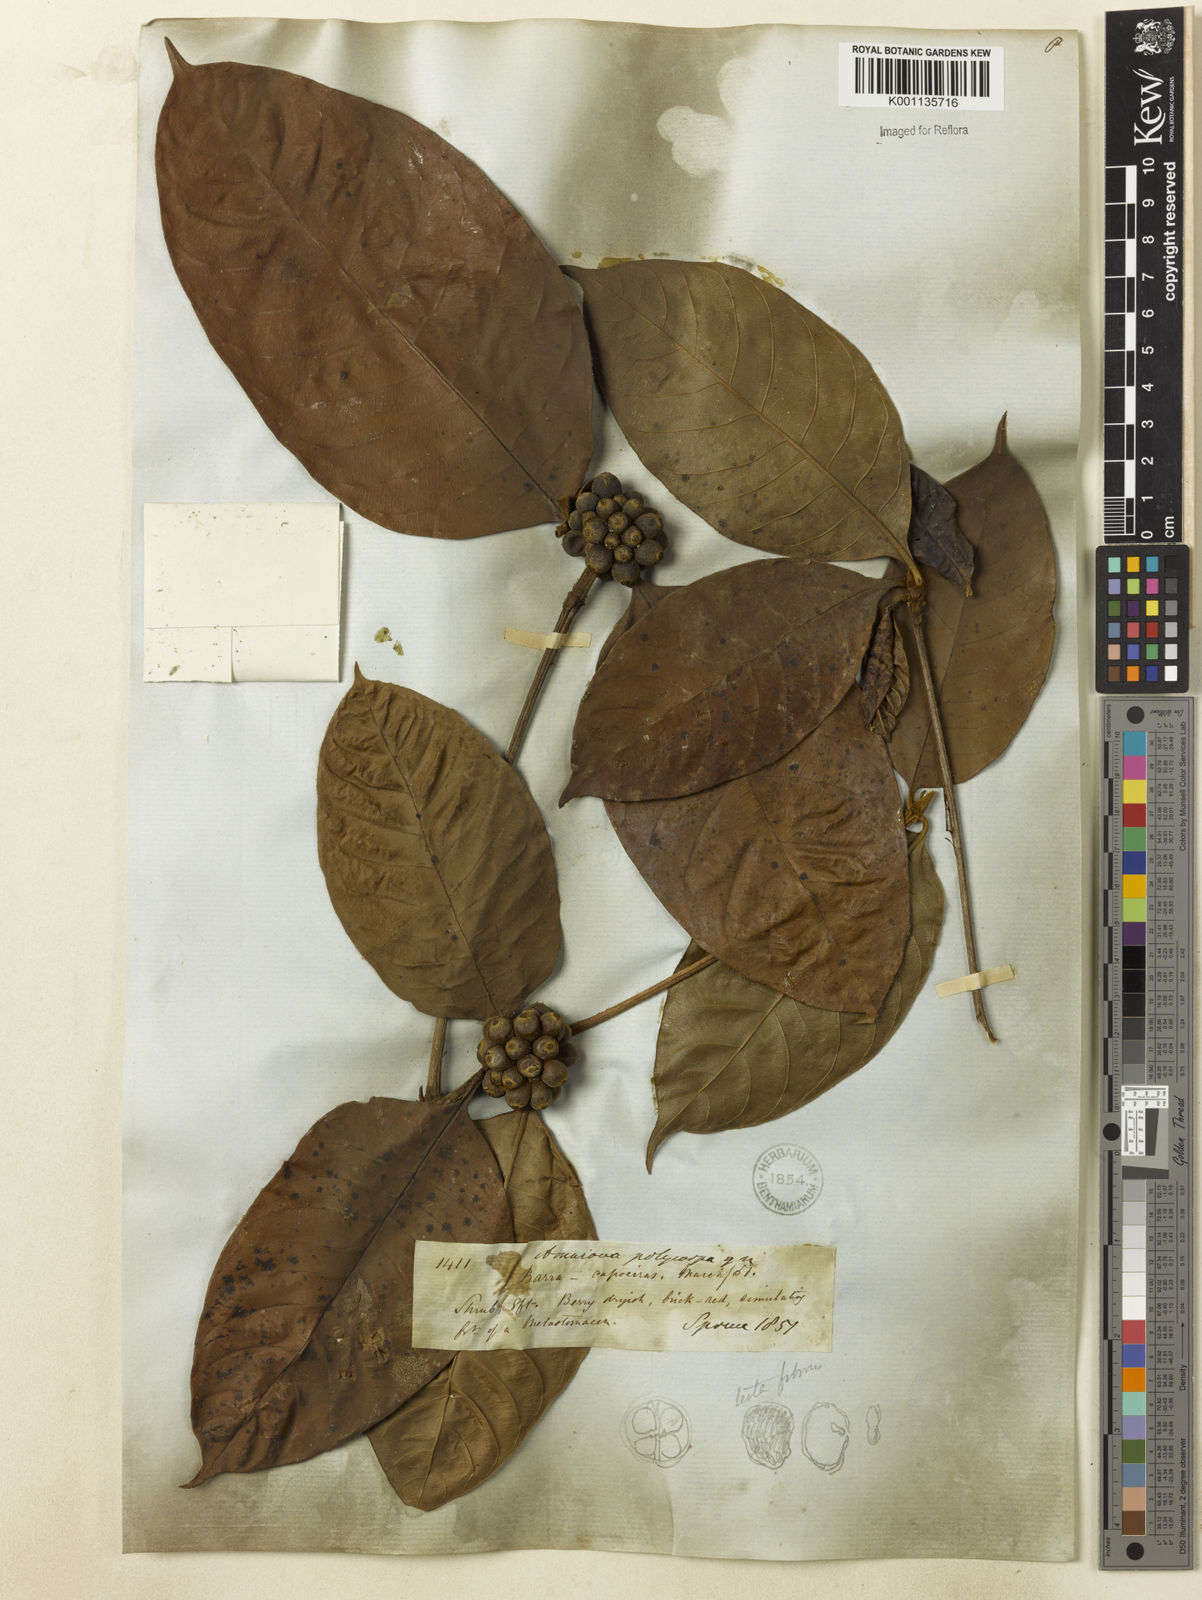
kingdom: Plantae
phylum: Tracheophyta
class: Magnoliopsida
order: Gentianales
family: Rubiaceae
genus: Amaioua
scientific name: Amaioua
